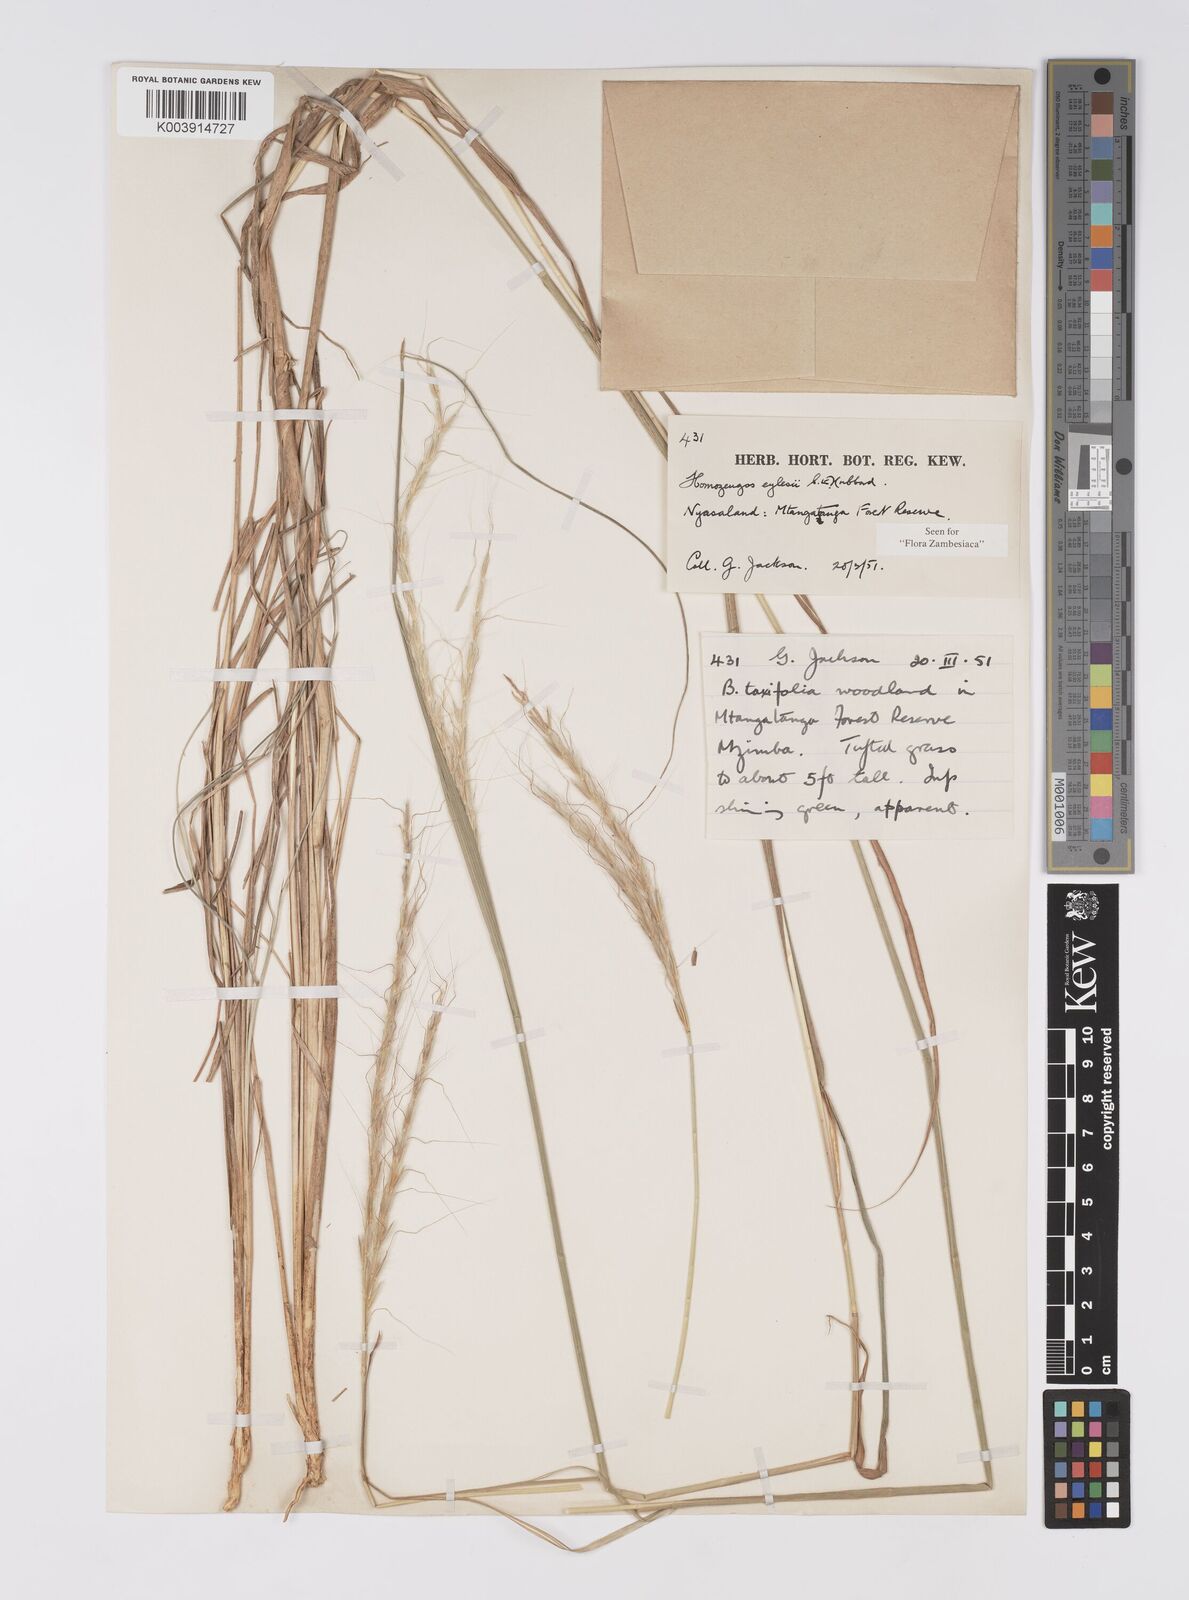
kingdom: Plantae
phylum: Tracheophyta
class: Liliopsida
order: Poales
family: Poaceae
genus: Homozeugos
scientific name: Homozeugos eylesii
